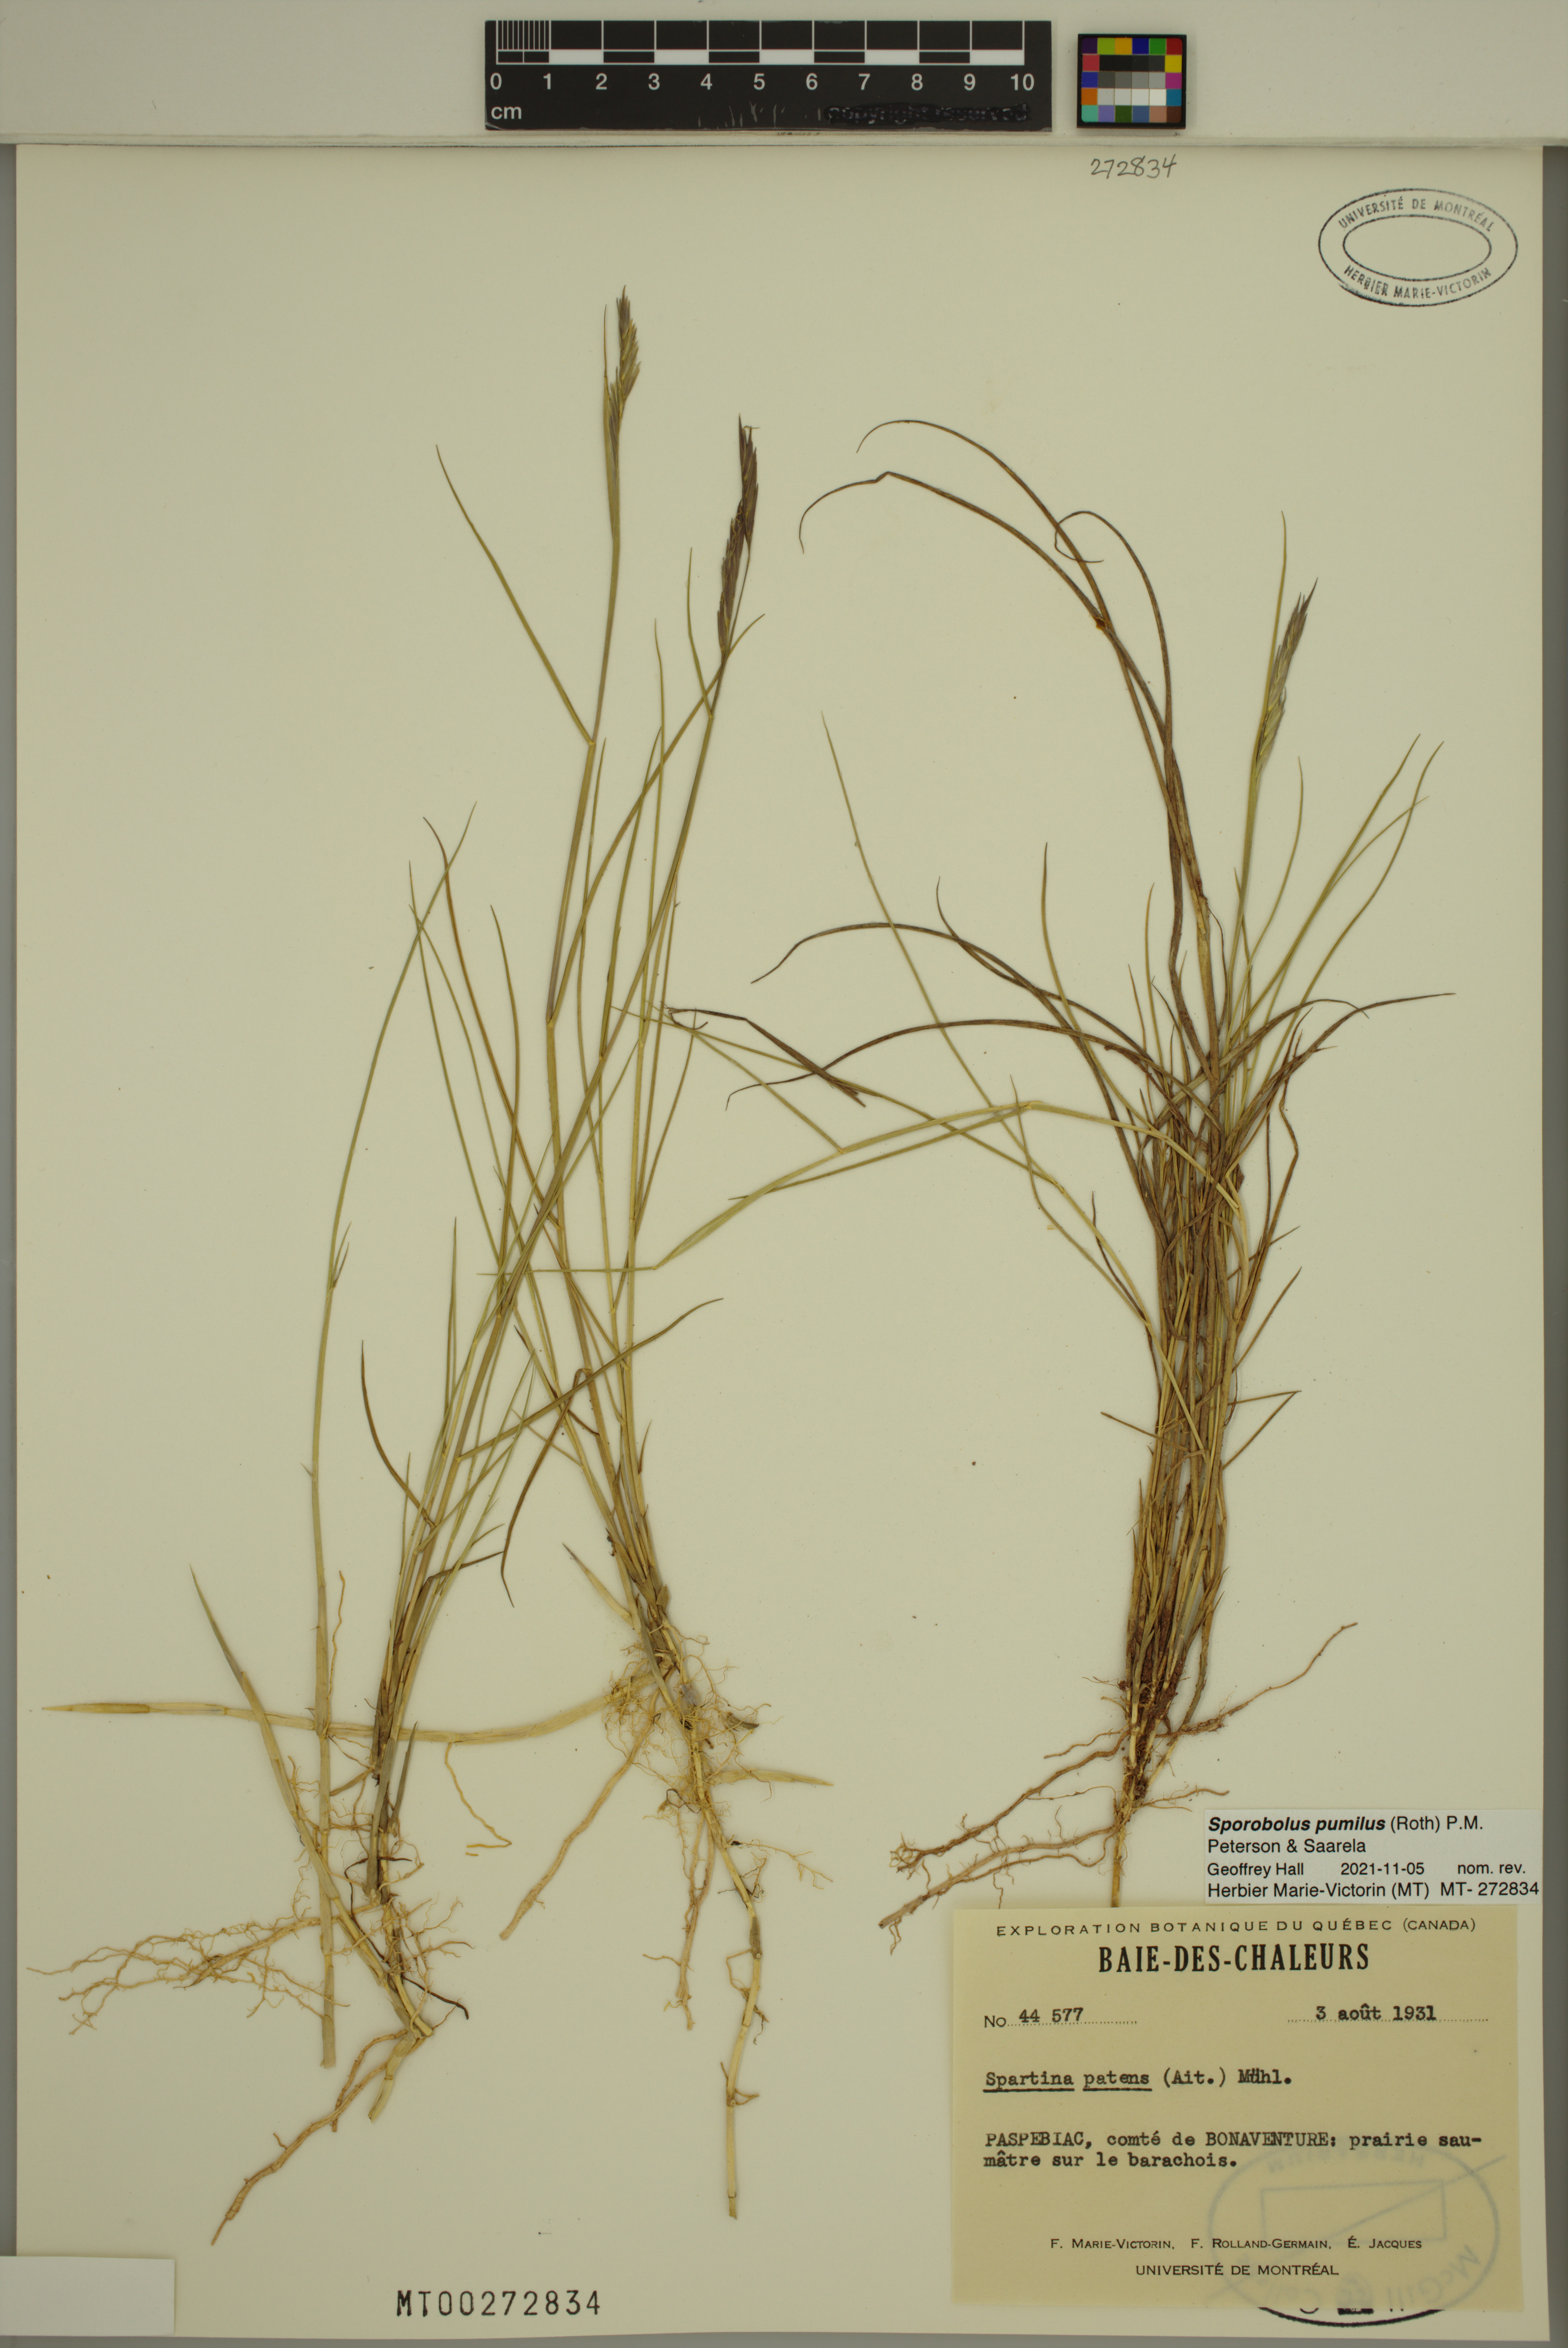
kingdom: Plantae
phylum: Tracheophyta
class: Liliopsida
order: Poales
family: Poaceae
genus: Sporobolus
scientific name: Sporobolus pumilus
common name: Highwater grass
